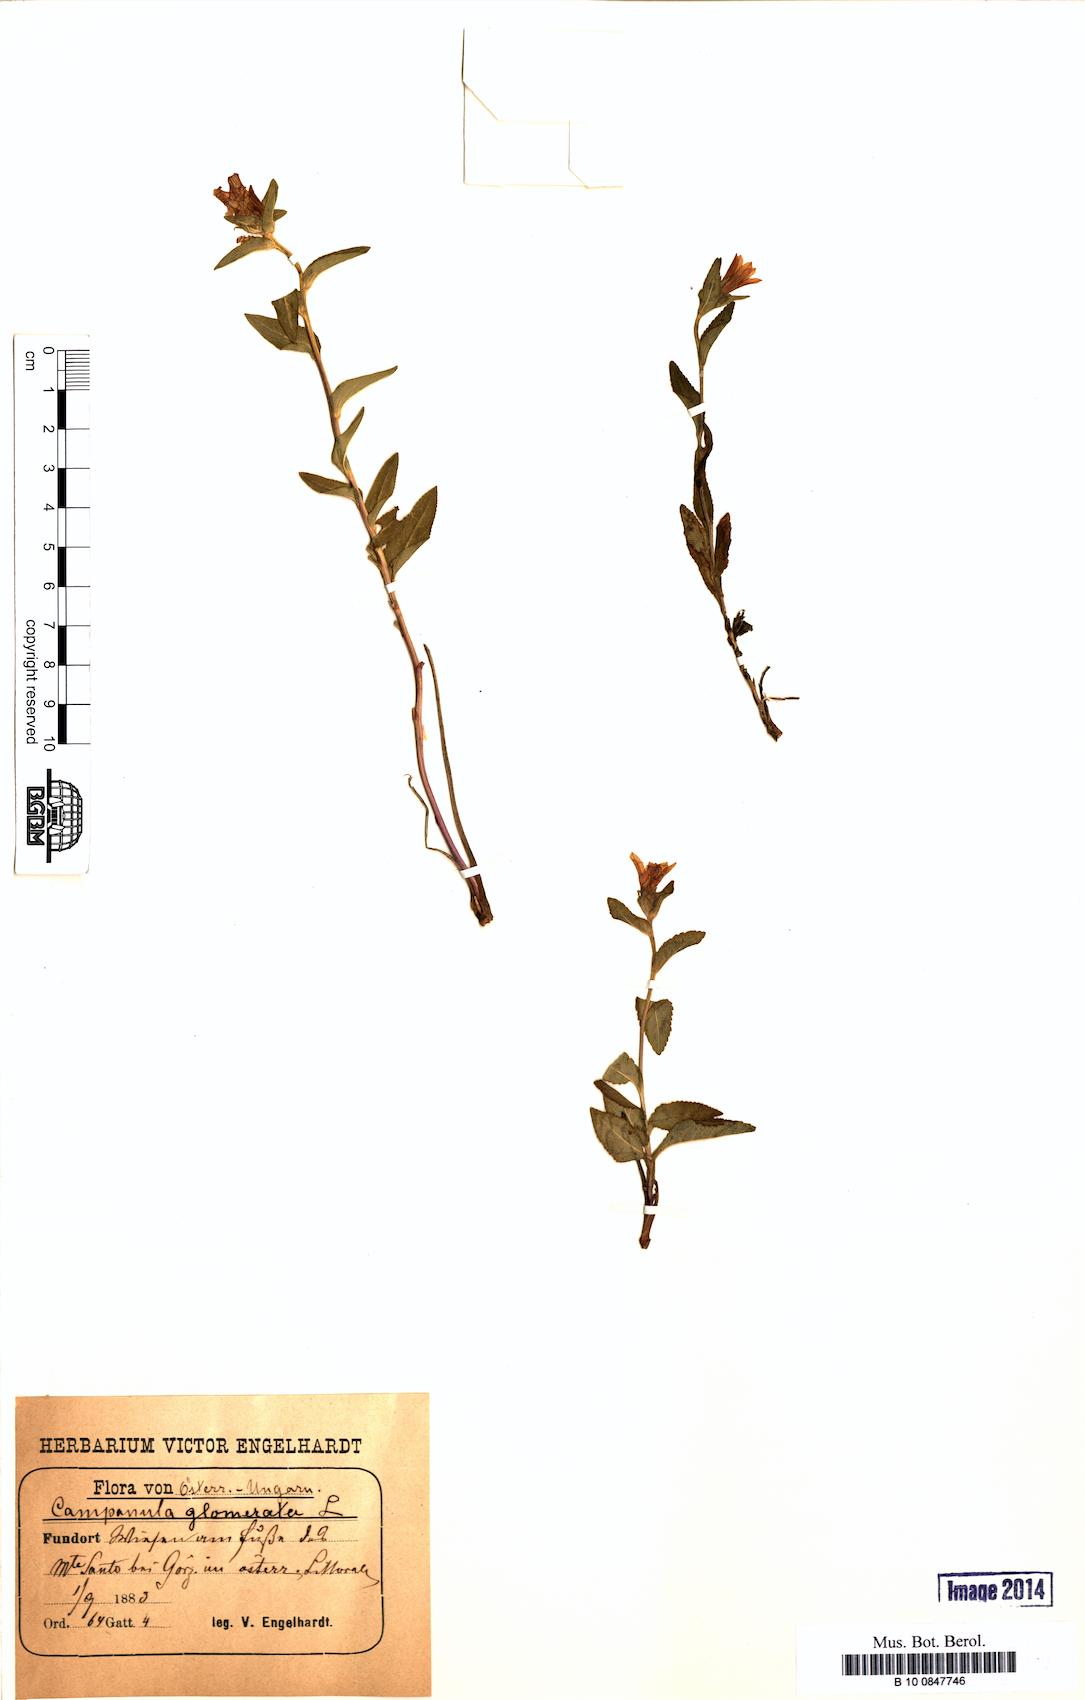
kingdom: Plantae
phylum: Tracheophyta
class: Magnoliopsida
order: Asterales
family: Campanulaceae
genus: Campanula
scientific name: Campanula glomerata
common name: Clustered bellflower
